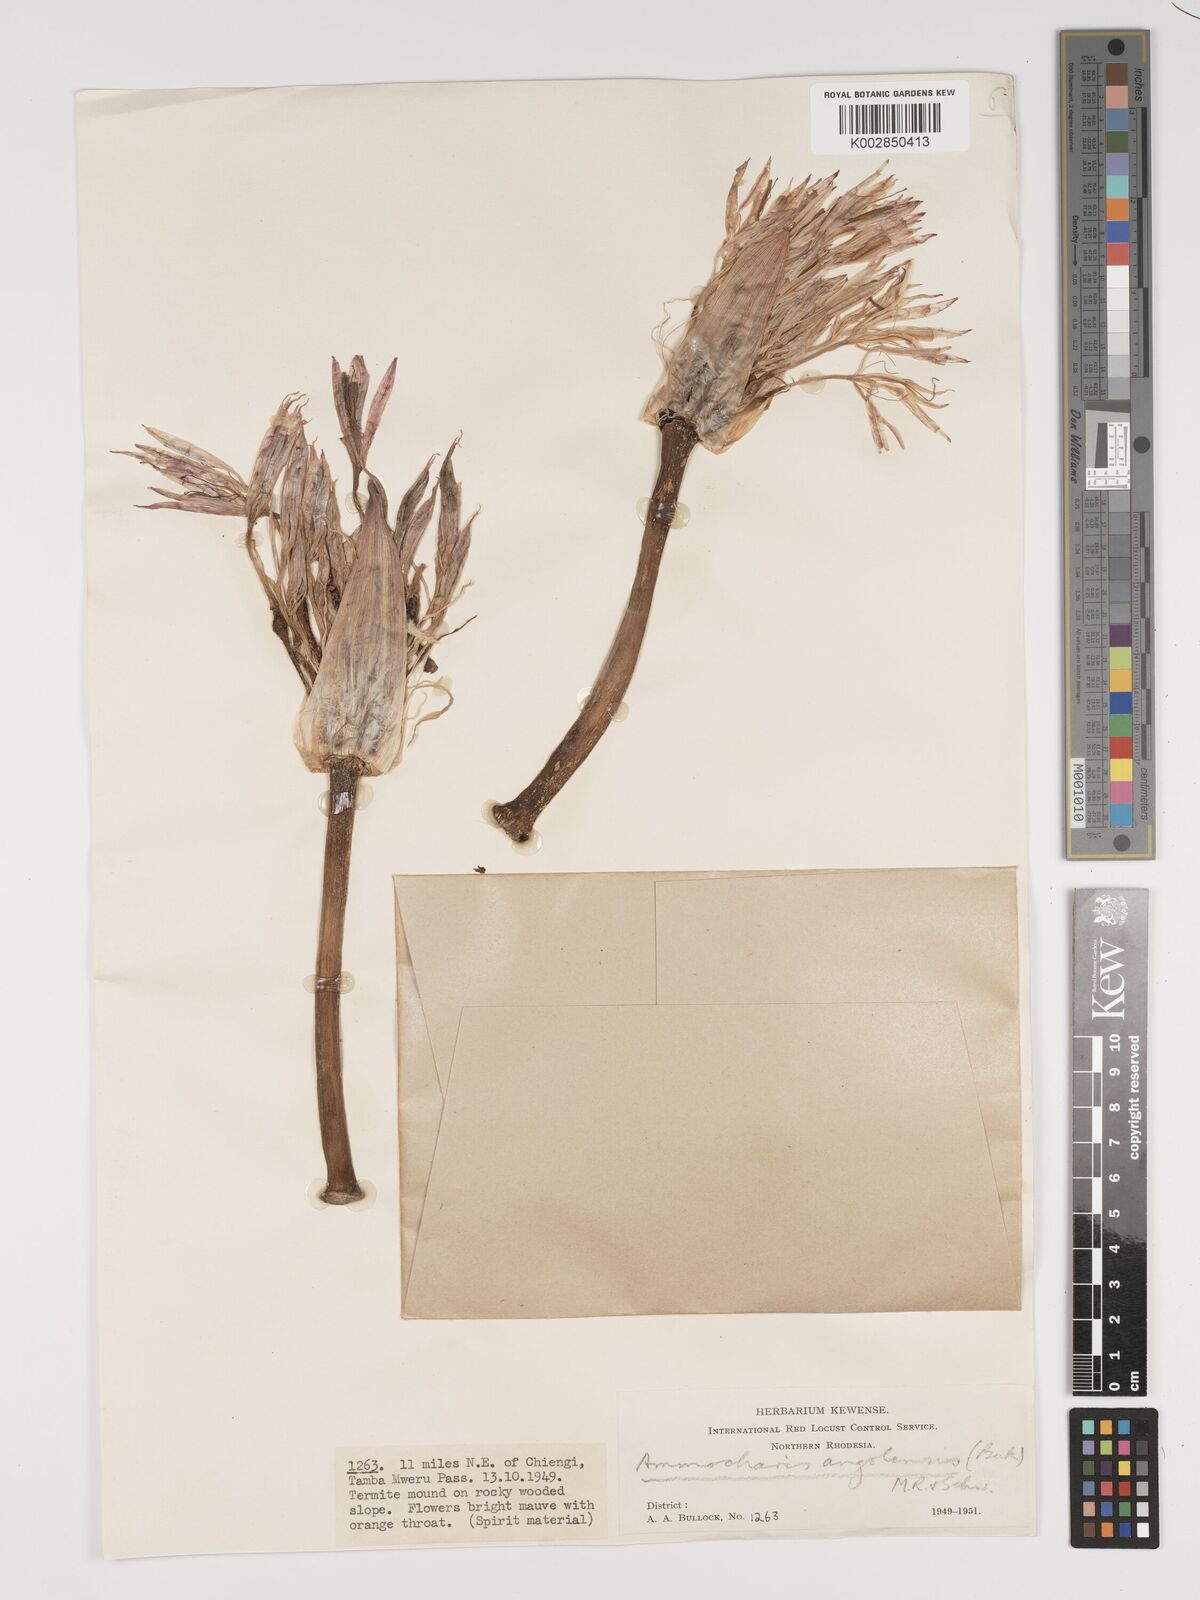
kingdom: Plantae
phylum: Tracheophyta
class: Liliopsida
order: Asparagales
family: Amaryllidaceae
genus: Ammocharis
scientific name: Ammocharis tinneana
